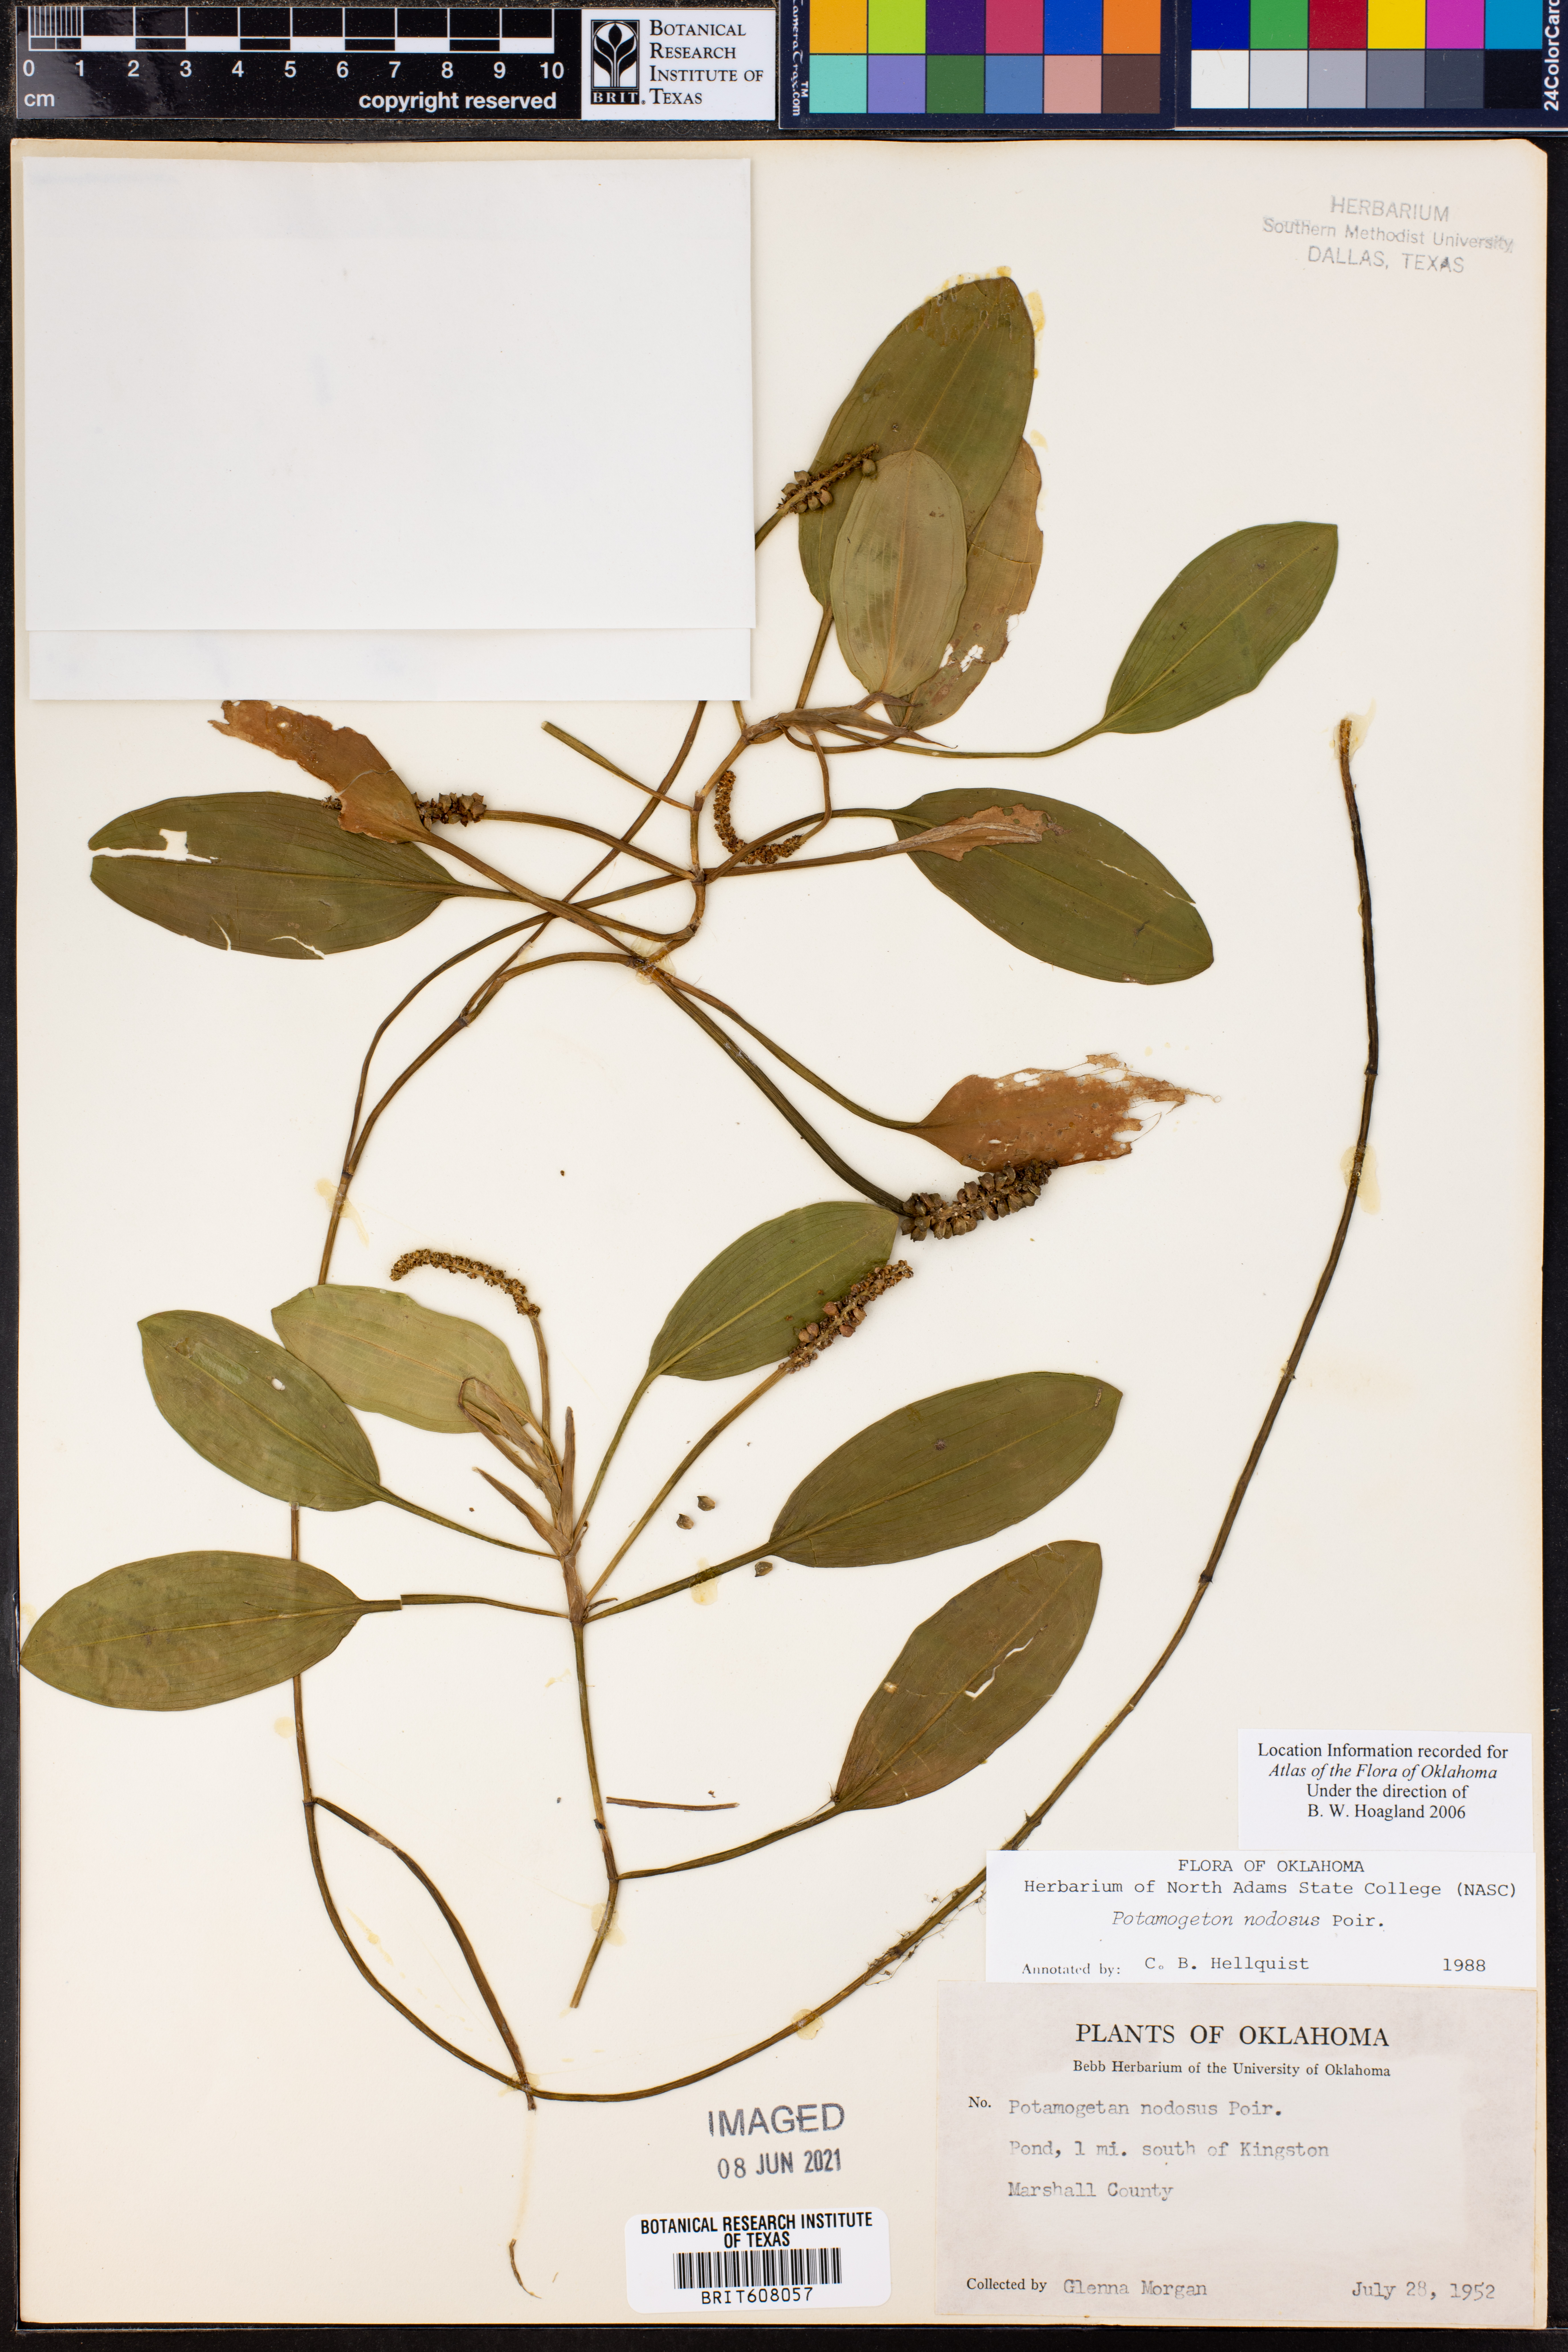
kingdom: Plantae
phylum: Tracheophyta
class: Liliopsida
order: Alismatales
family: Potamogetonaceae
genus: Potamogeton
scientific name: Potamogeton nodosus
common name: Loddon pondweed
